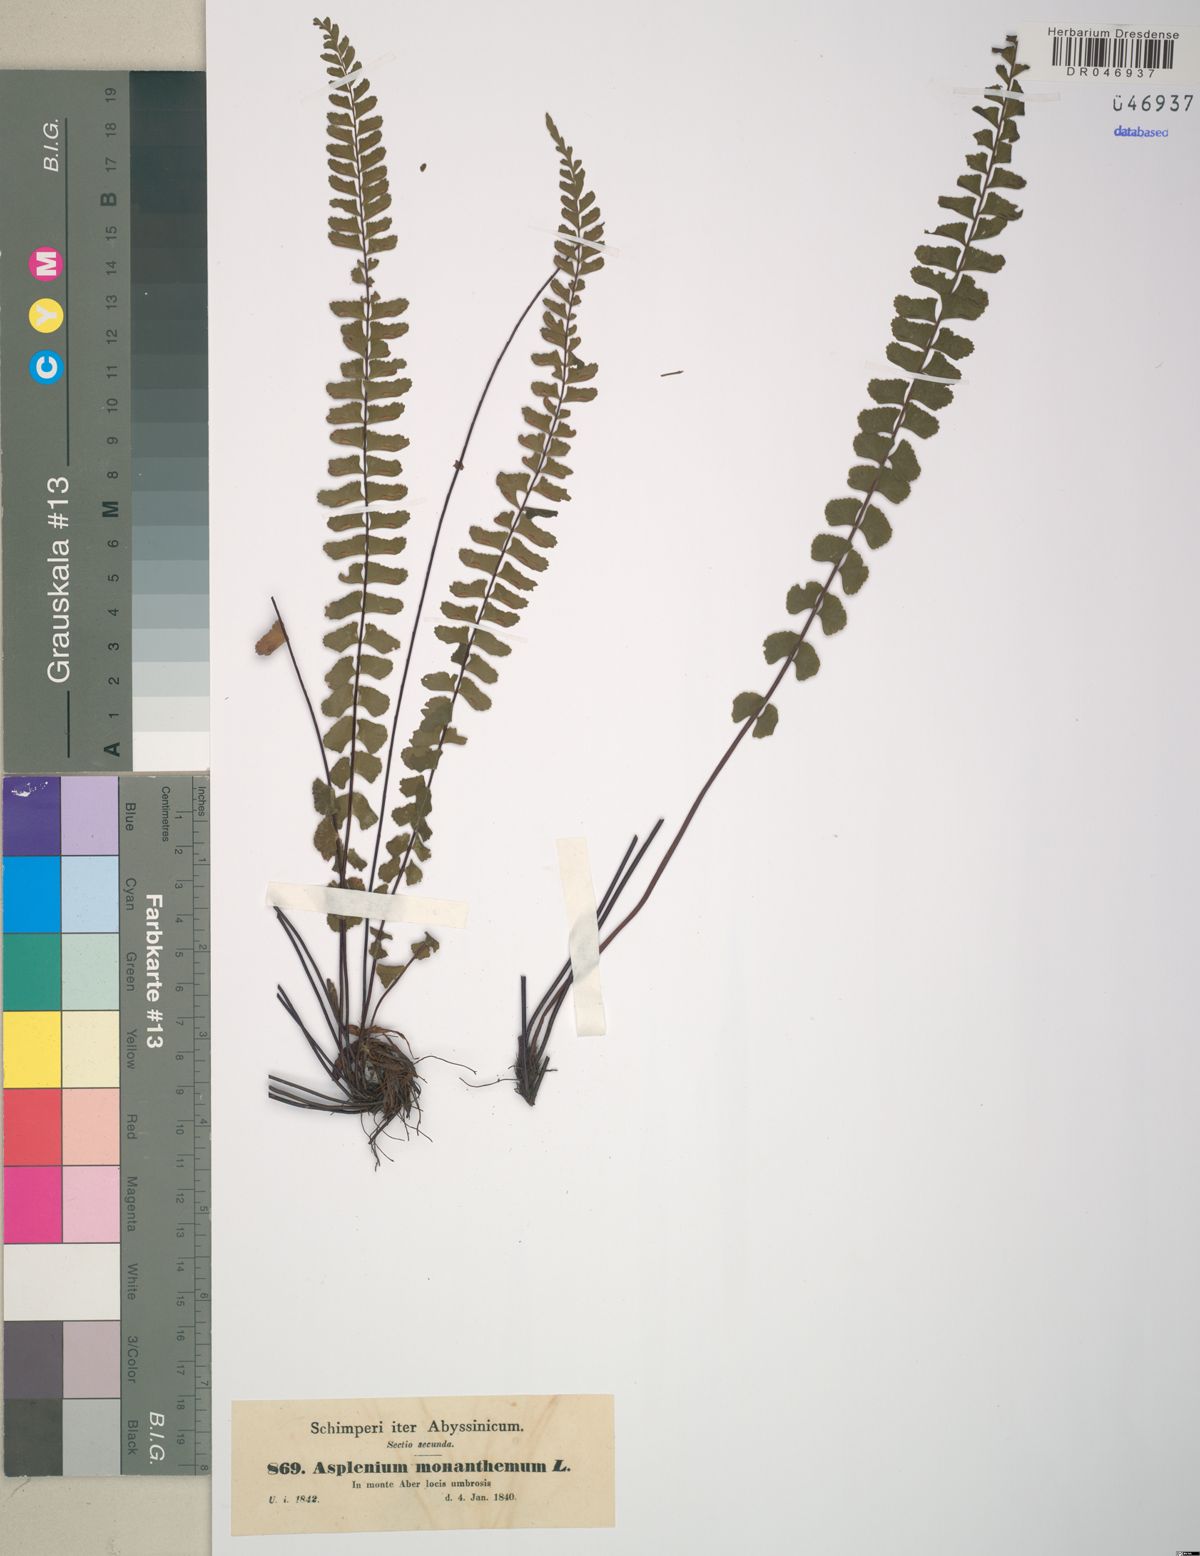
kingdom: Plantae
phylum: Tracheophyta
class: Polypodiopsida
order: Polypodiales
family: Aspleniaceae
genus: Asplenium
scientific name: Asplenium monanthes
